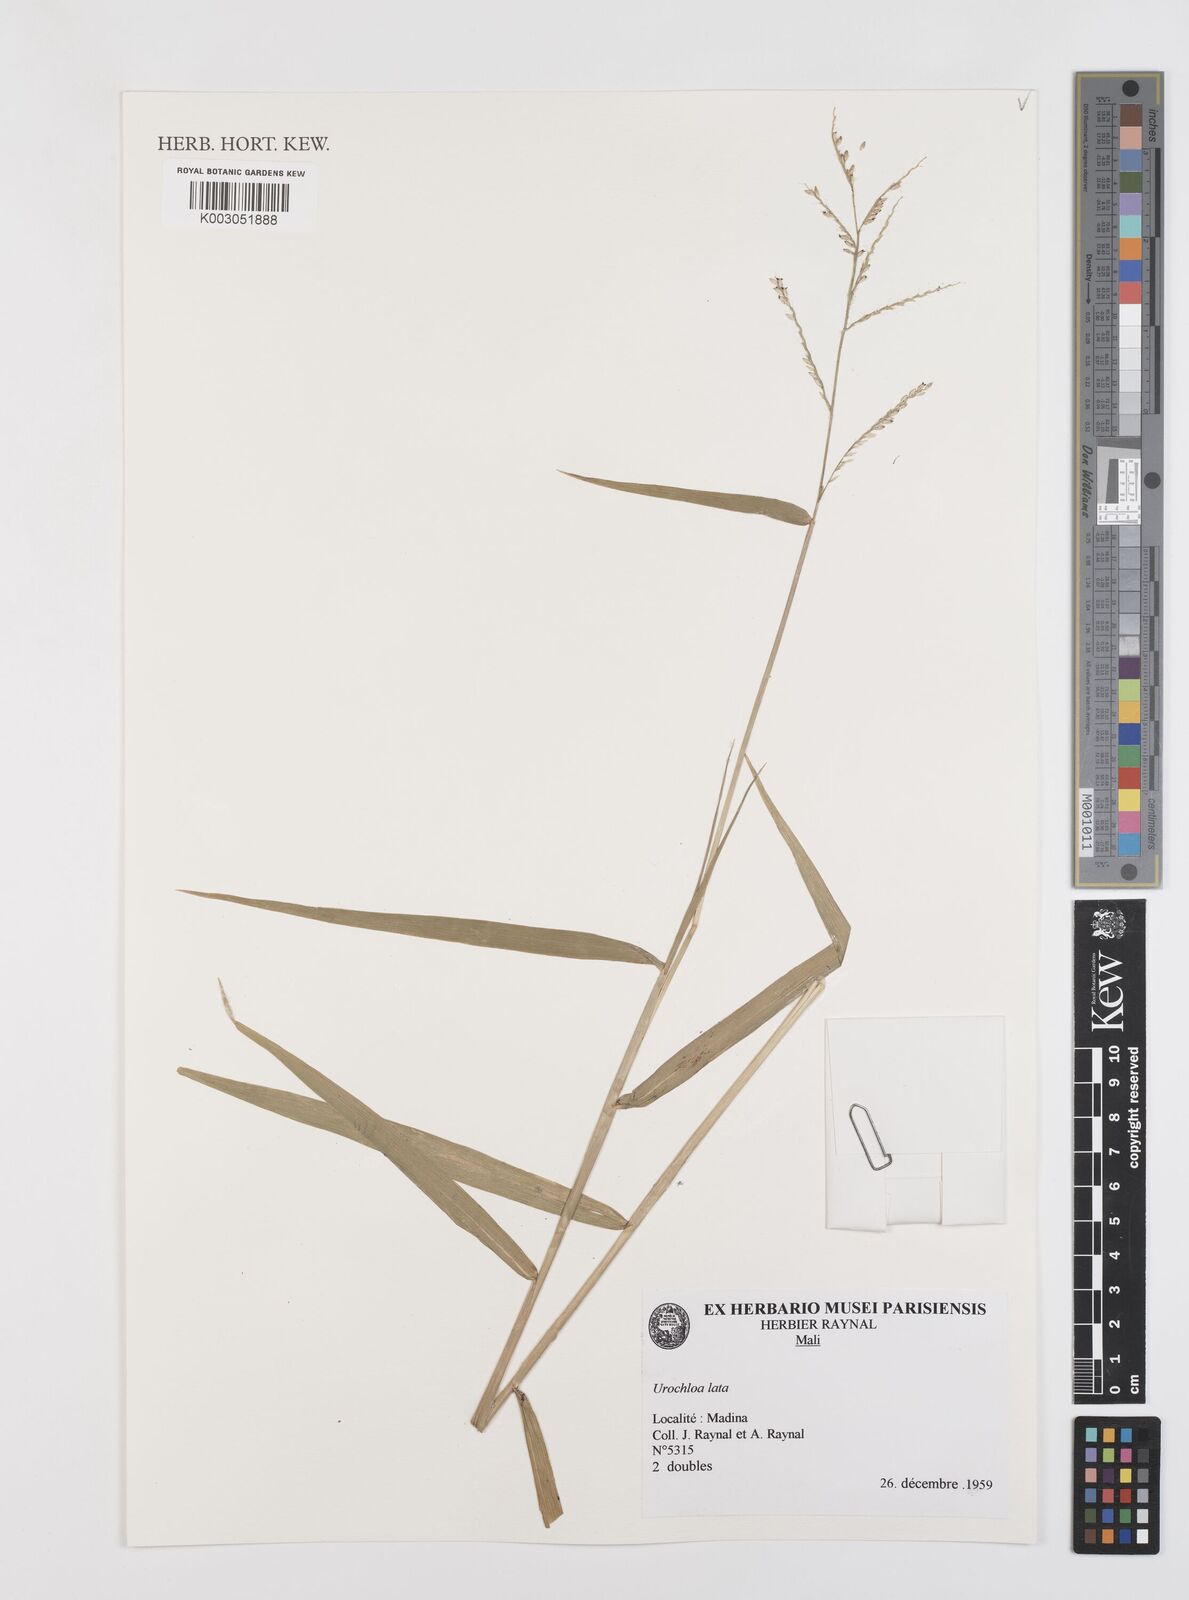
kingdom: Plantae
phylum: Tracheophyta
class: Liliopsida
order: Poales
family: Poaceae
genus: Urochloa
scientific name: Urochloa lata
